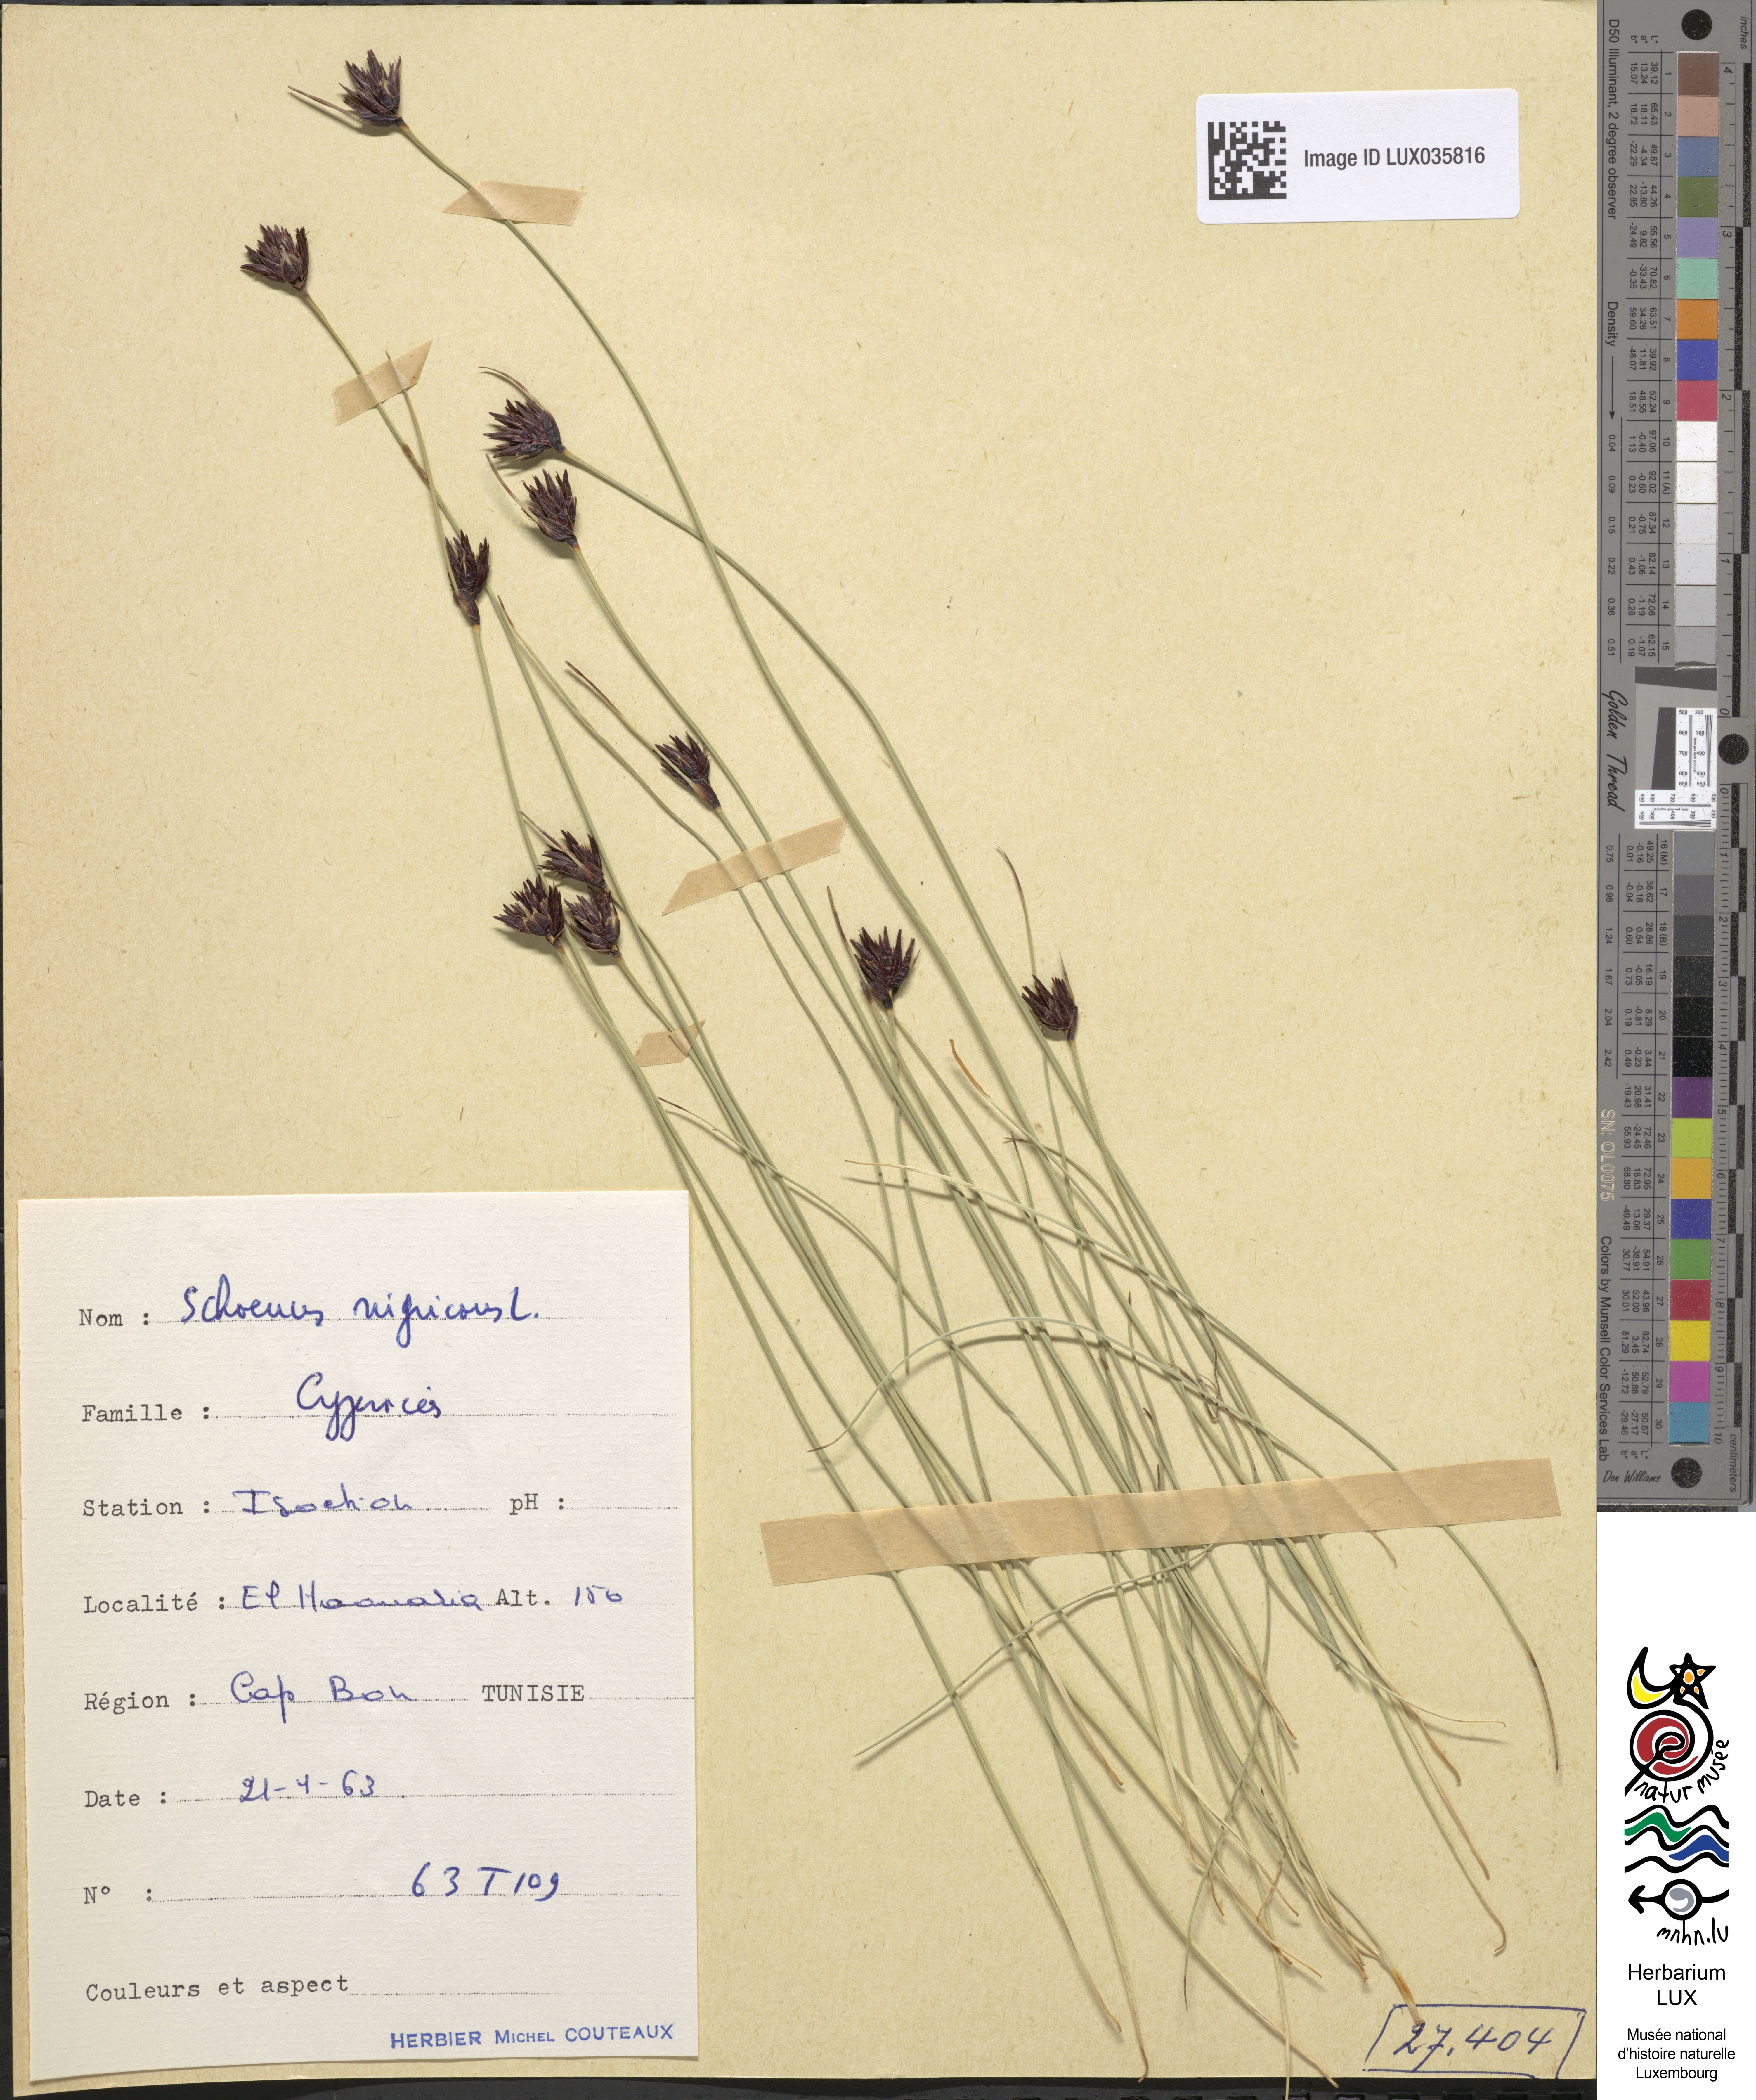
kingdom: Plantae
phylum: Tracheophyta
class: Liliopsida
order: Poales
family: Cyperaceae
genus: Schoenus
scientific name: Schoenus nigricans
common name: Black bog-rush
